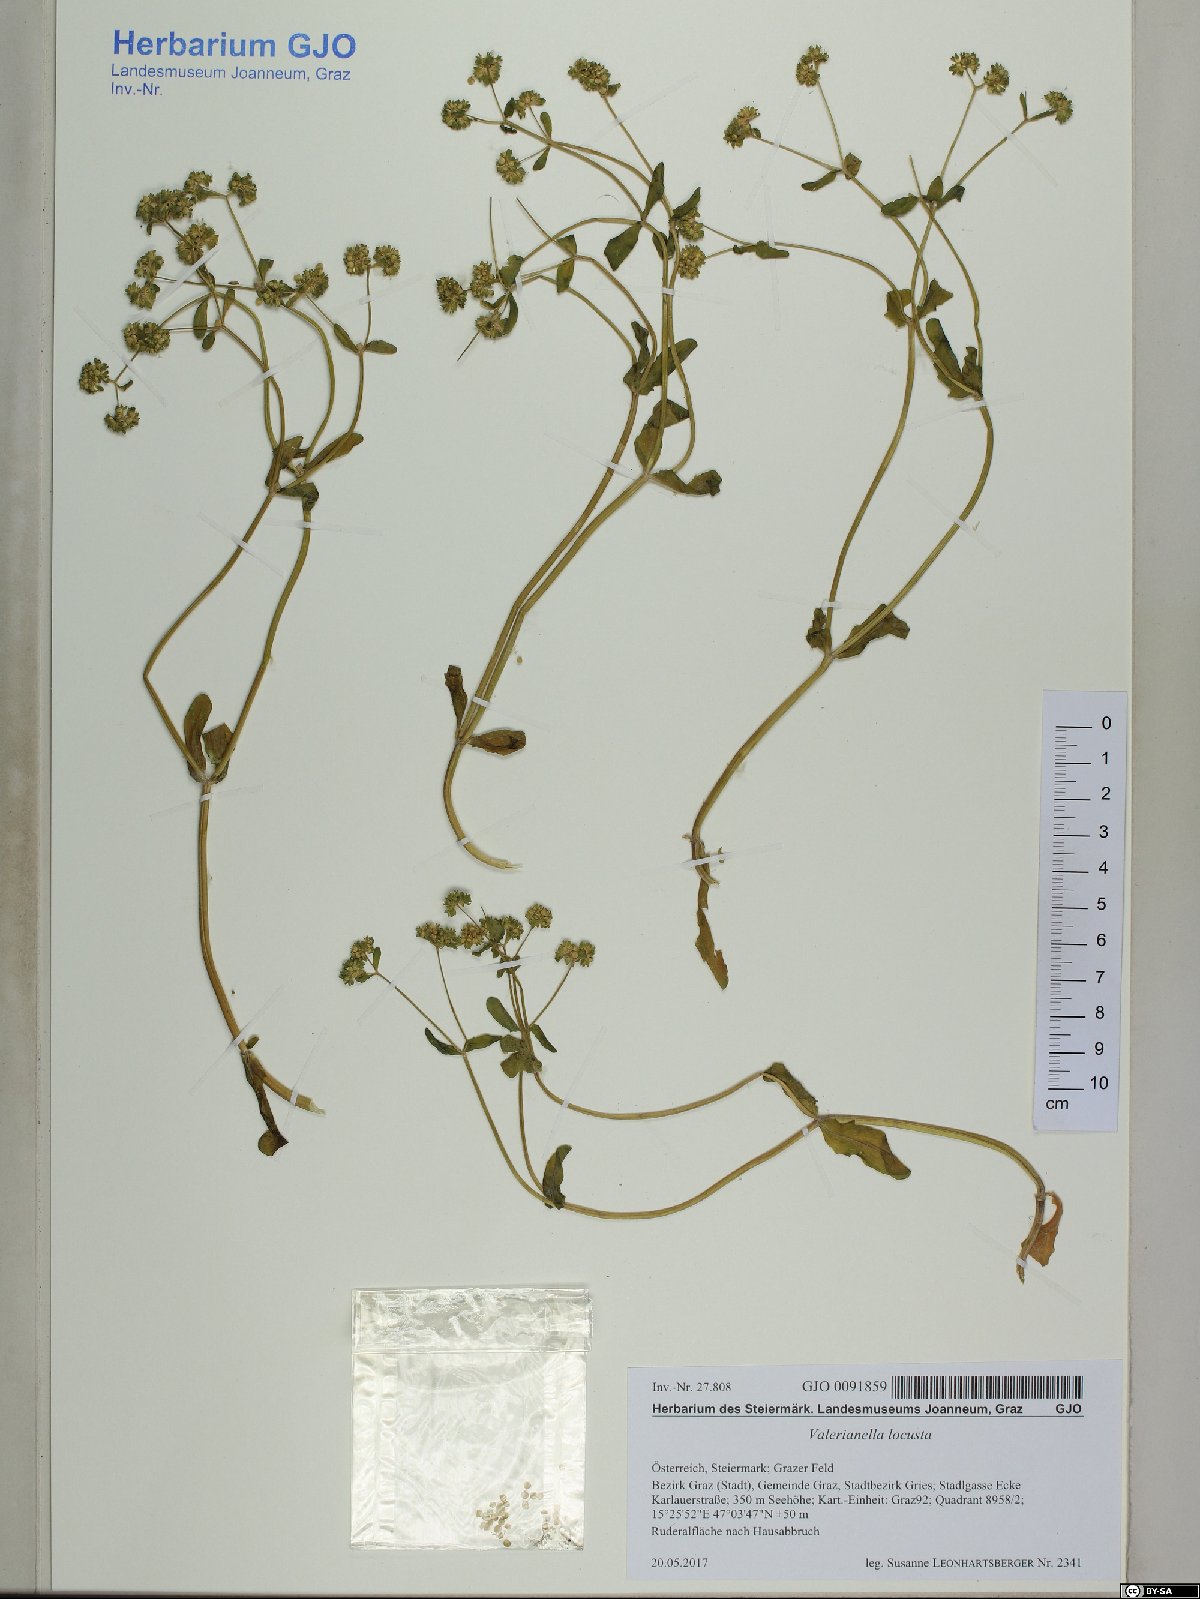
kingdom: Plantae
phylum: Tracheophyta
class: Magnoliopsida
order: Dipsacales
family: Caprifoliaceae
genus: Valerianella
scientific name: Valerianella locusta
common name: Common cornsalad
